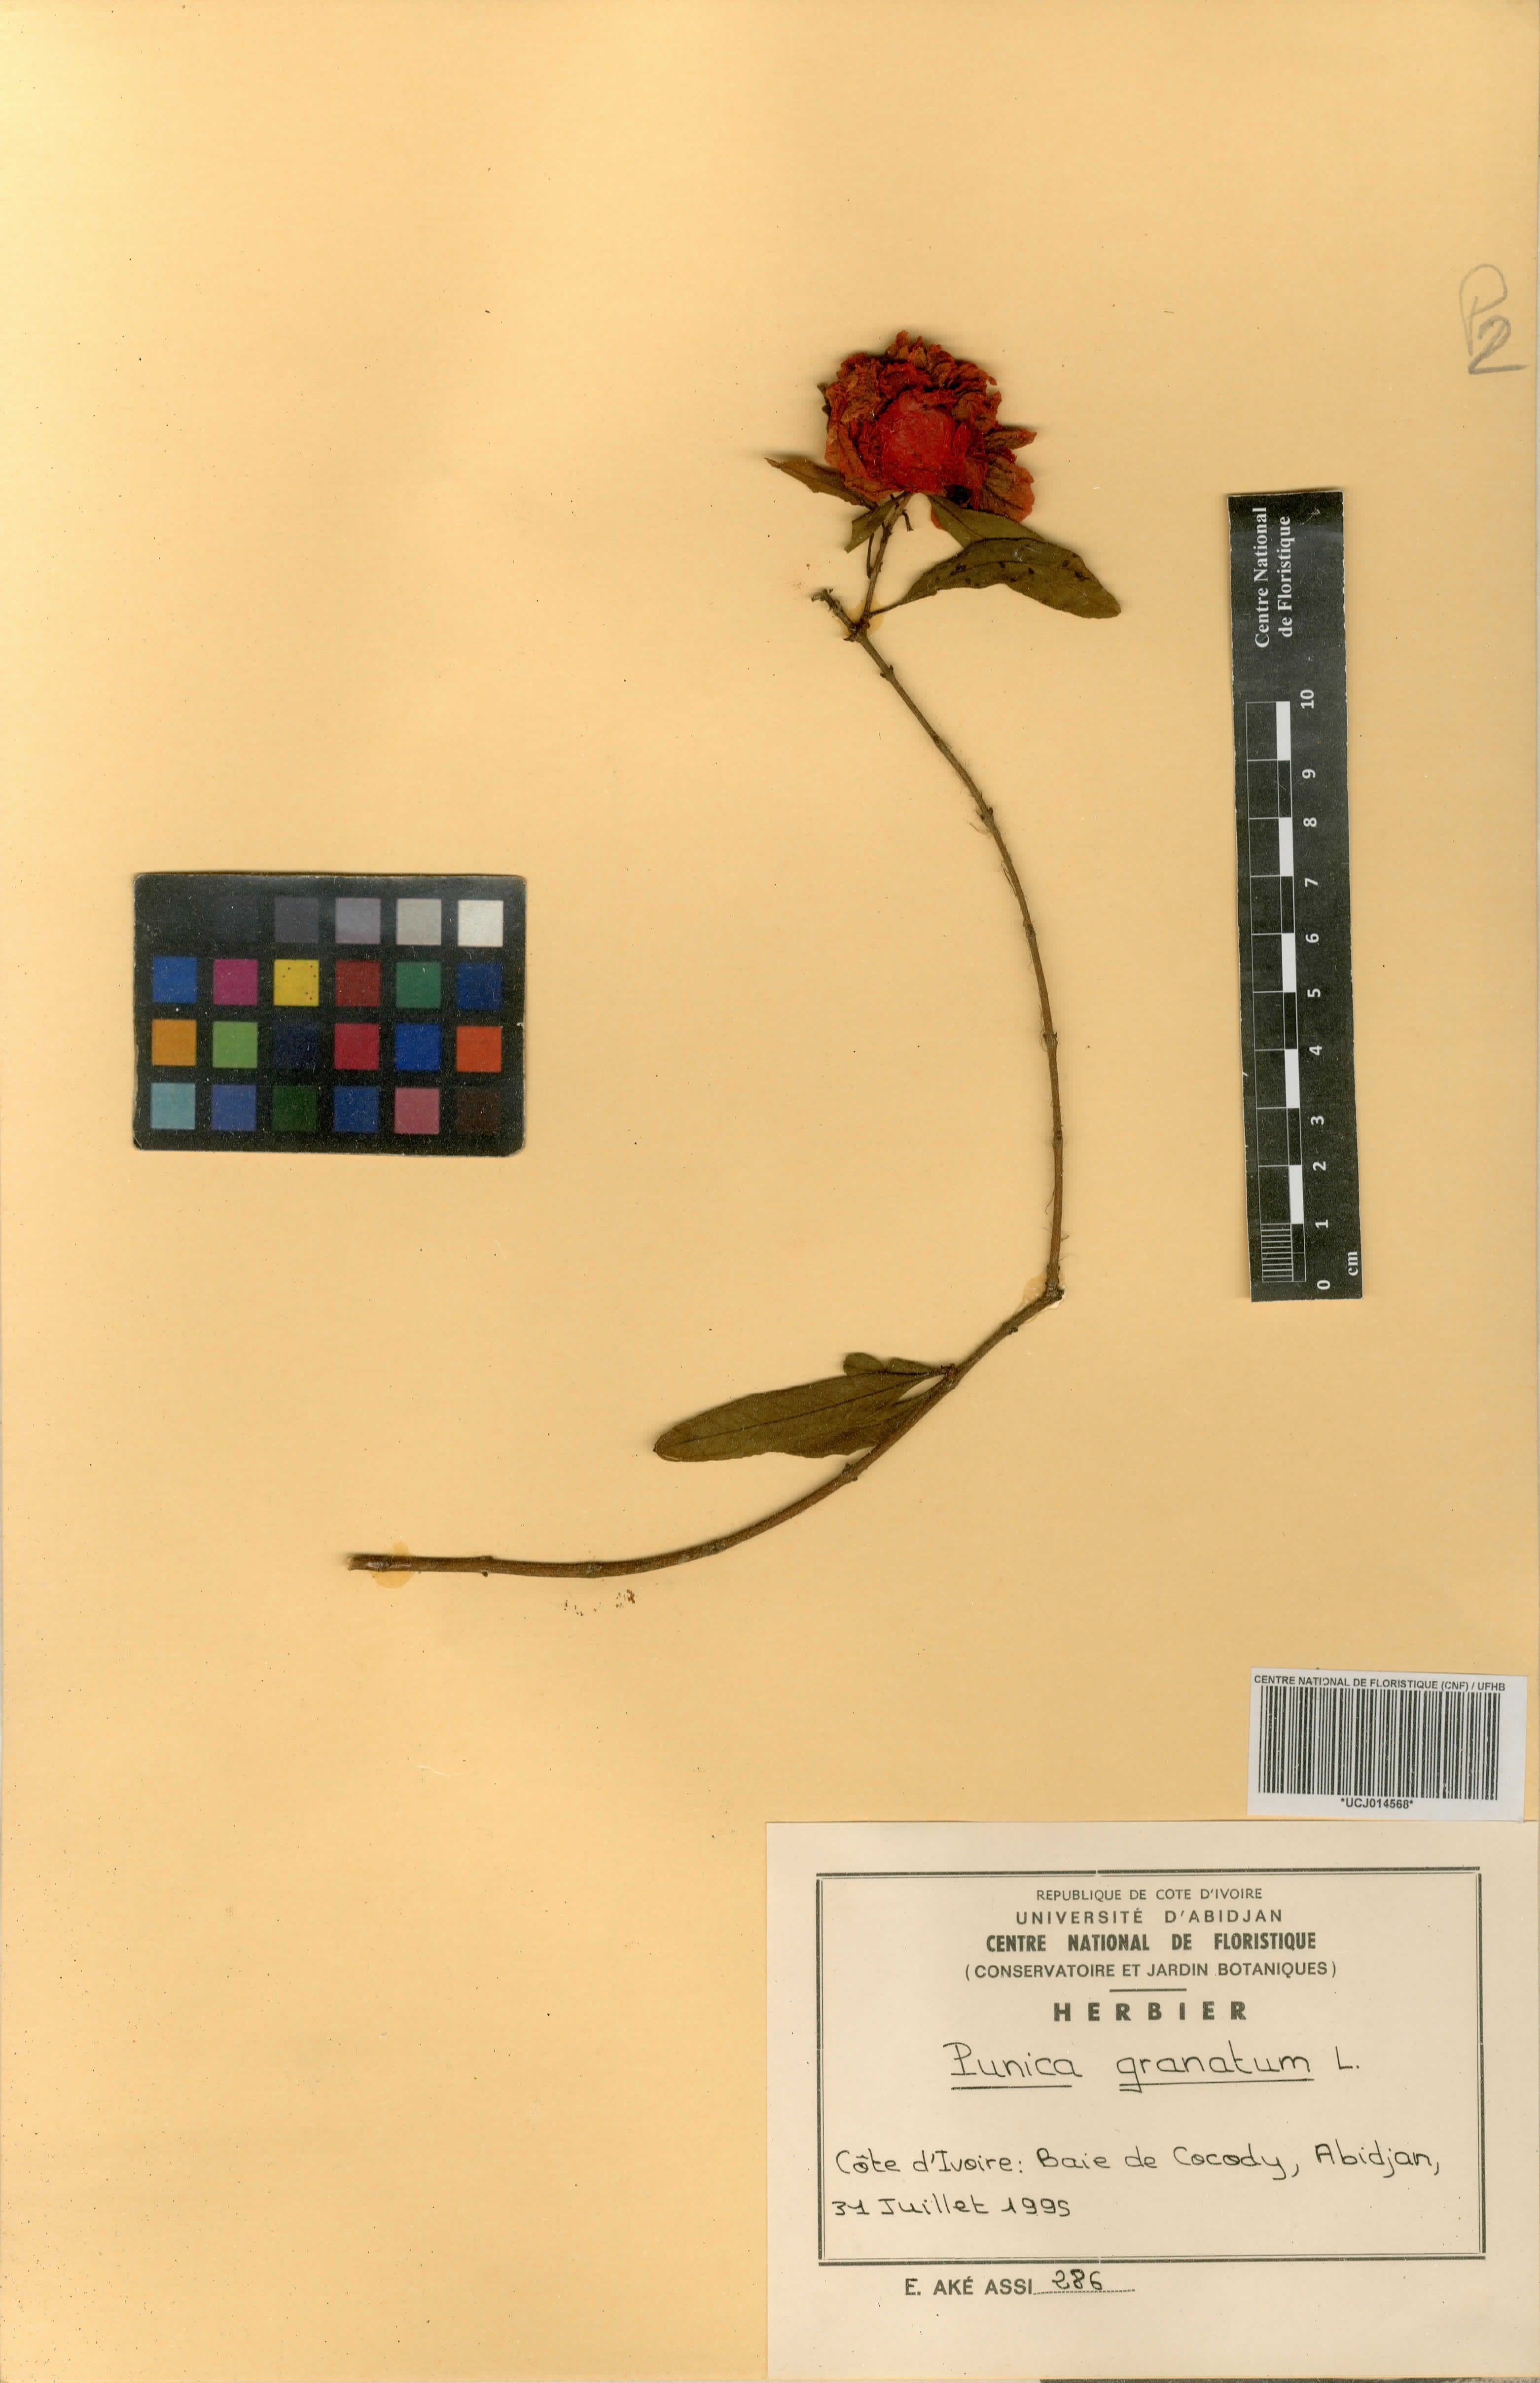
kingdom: Plantae
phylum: Tracheophyta
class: Magnoliopsida
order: Myrtales
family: Lythraceae
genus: Punica
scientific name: Punica granatum
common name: Pomegranate
